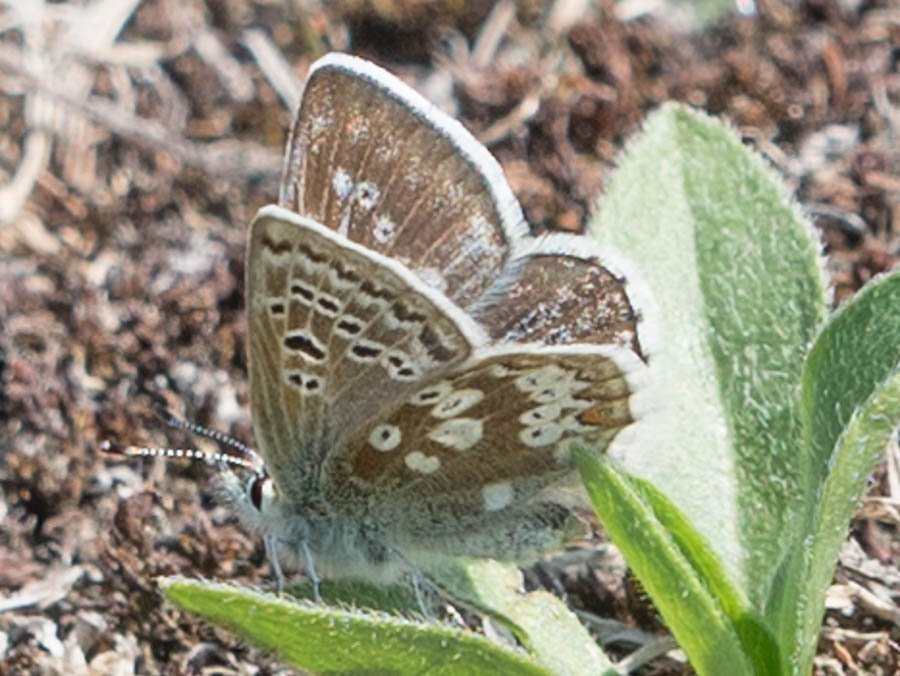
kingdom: Animalia
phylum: Arthropoda
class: Insecta
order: Lepidoptera
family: Lycaenidae
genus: Agriades
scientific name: Agriades glandon
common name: Arctic Blue
